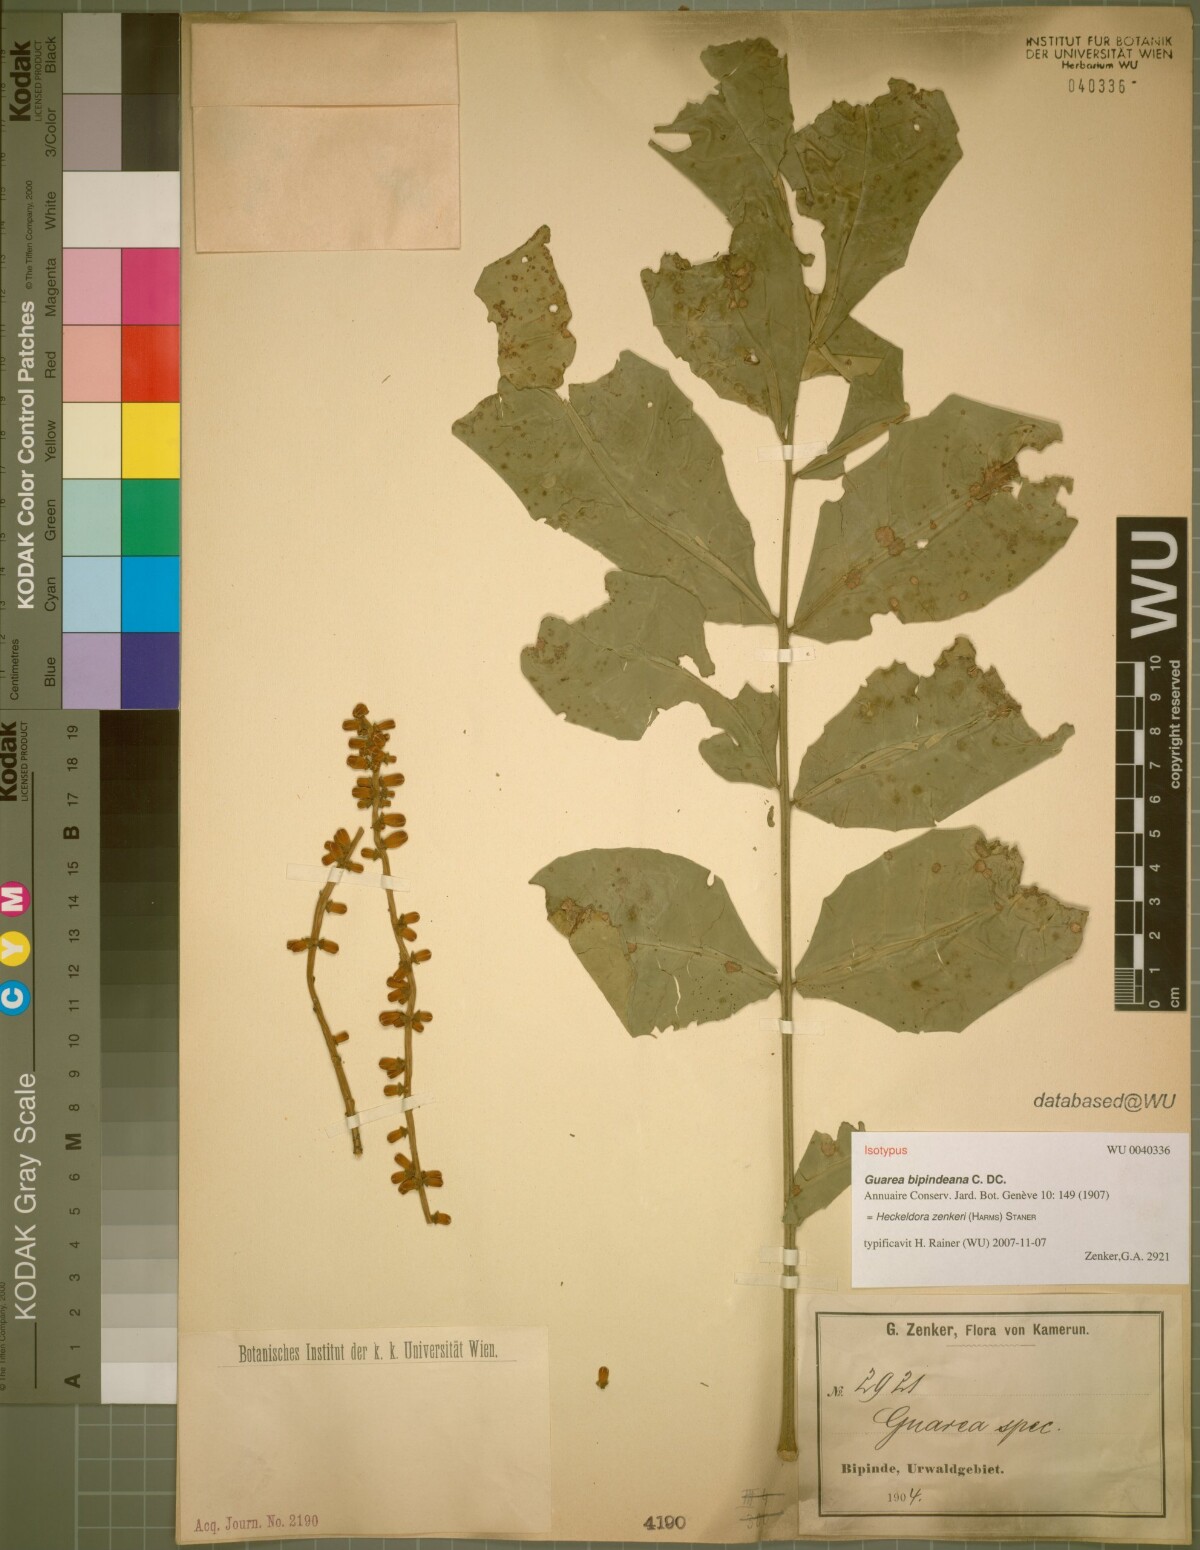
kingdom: Plantae
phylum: Tracheophyta
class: Magnoliopsida
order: Sapindales
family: Meliaceae
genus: Heckeldora
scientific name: Heckeldora zenkeri
